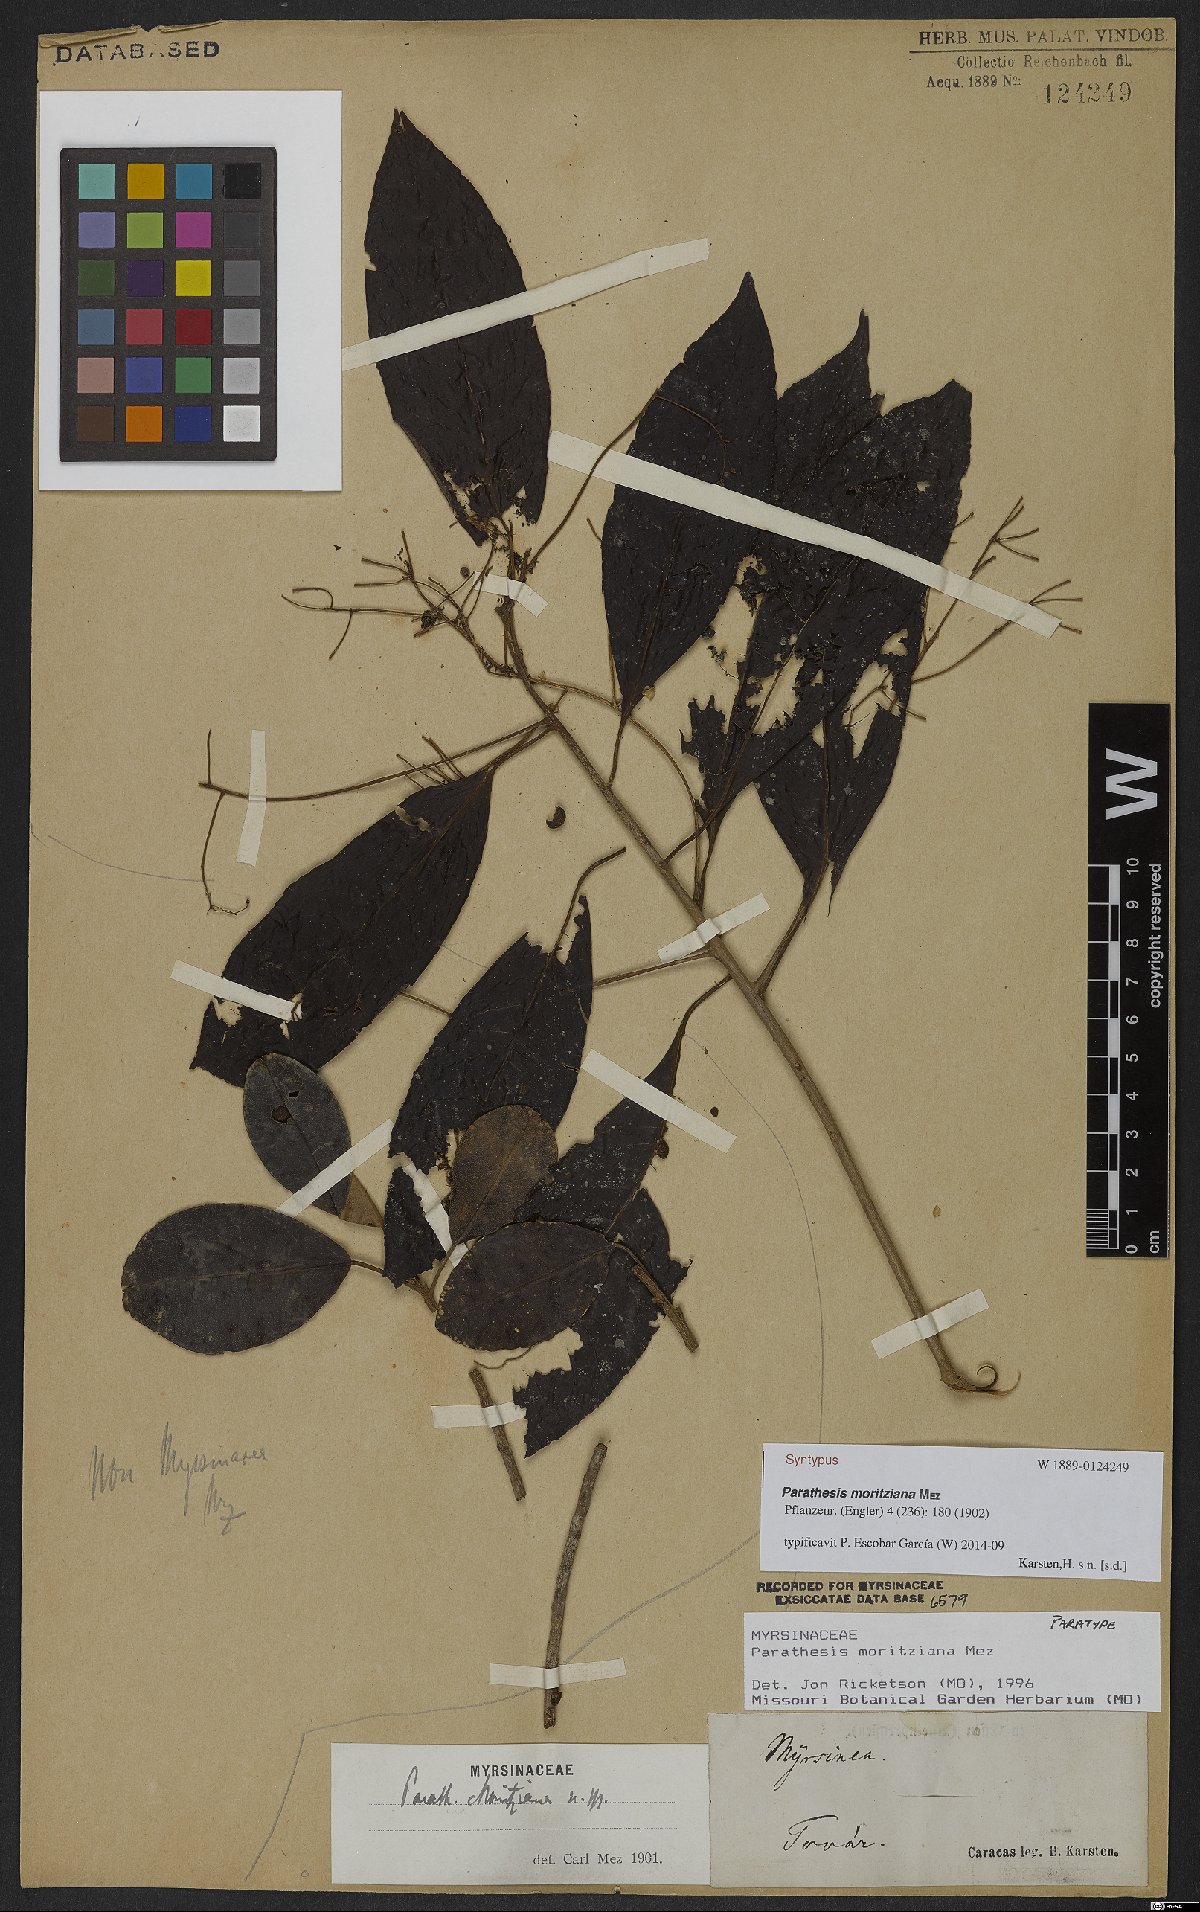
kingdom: Plantae
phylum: Tracheophyta
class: Magnoliopsida
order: Ericales
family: Primulaceae
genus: Parathesis
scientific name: Parathesis moritziana
